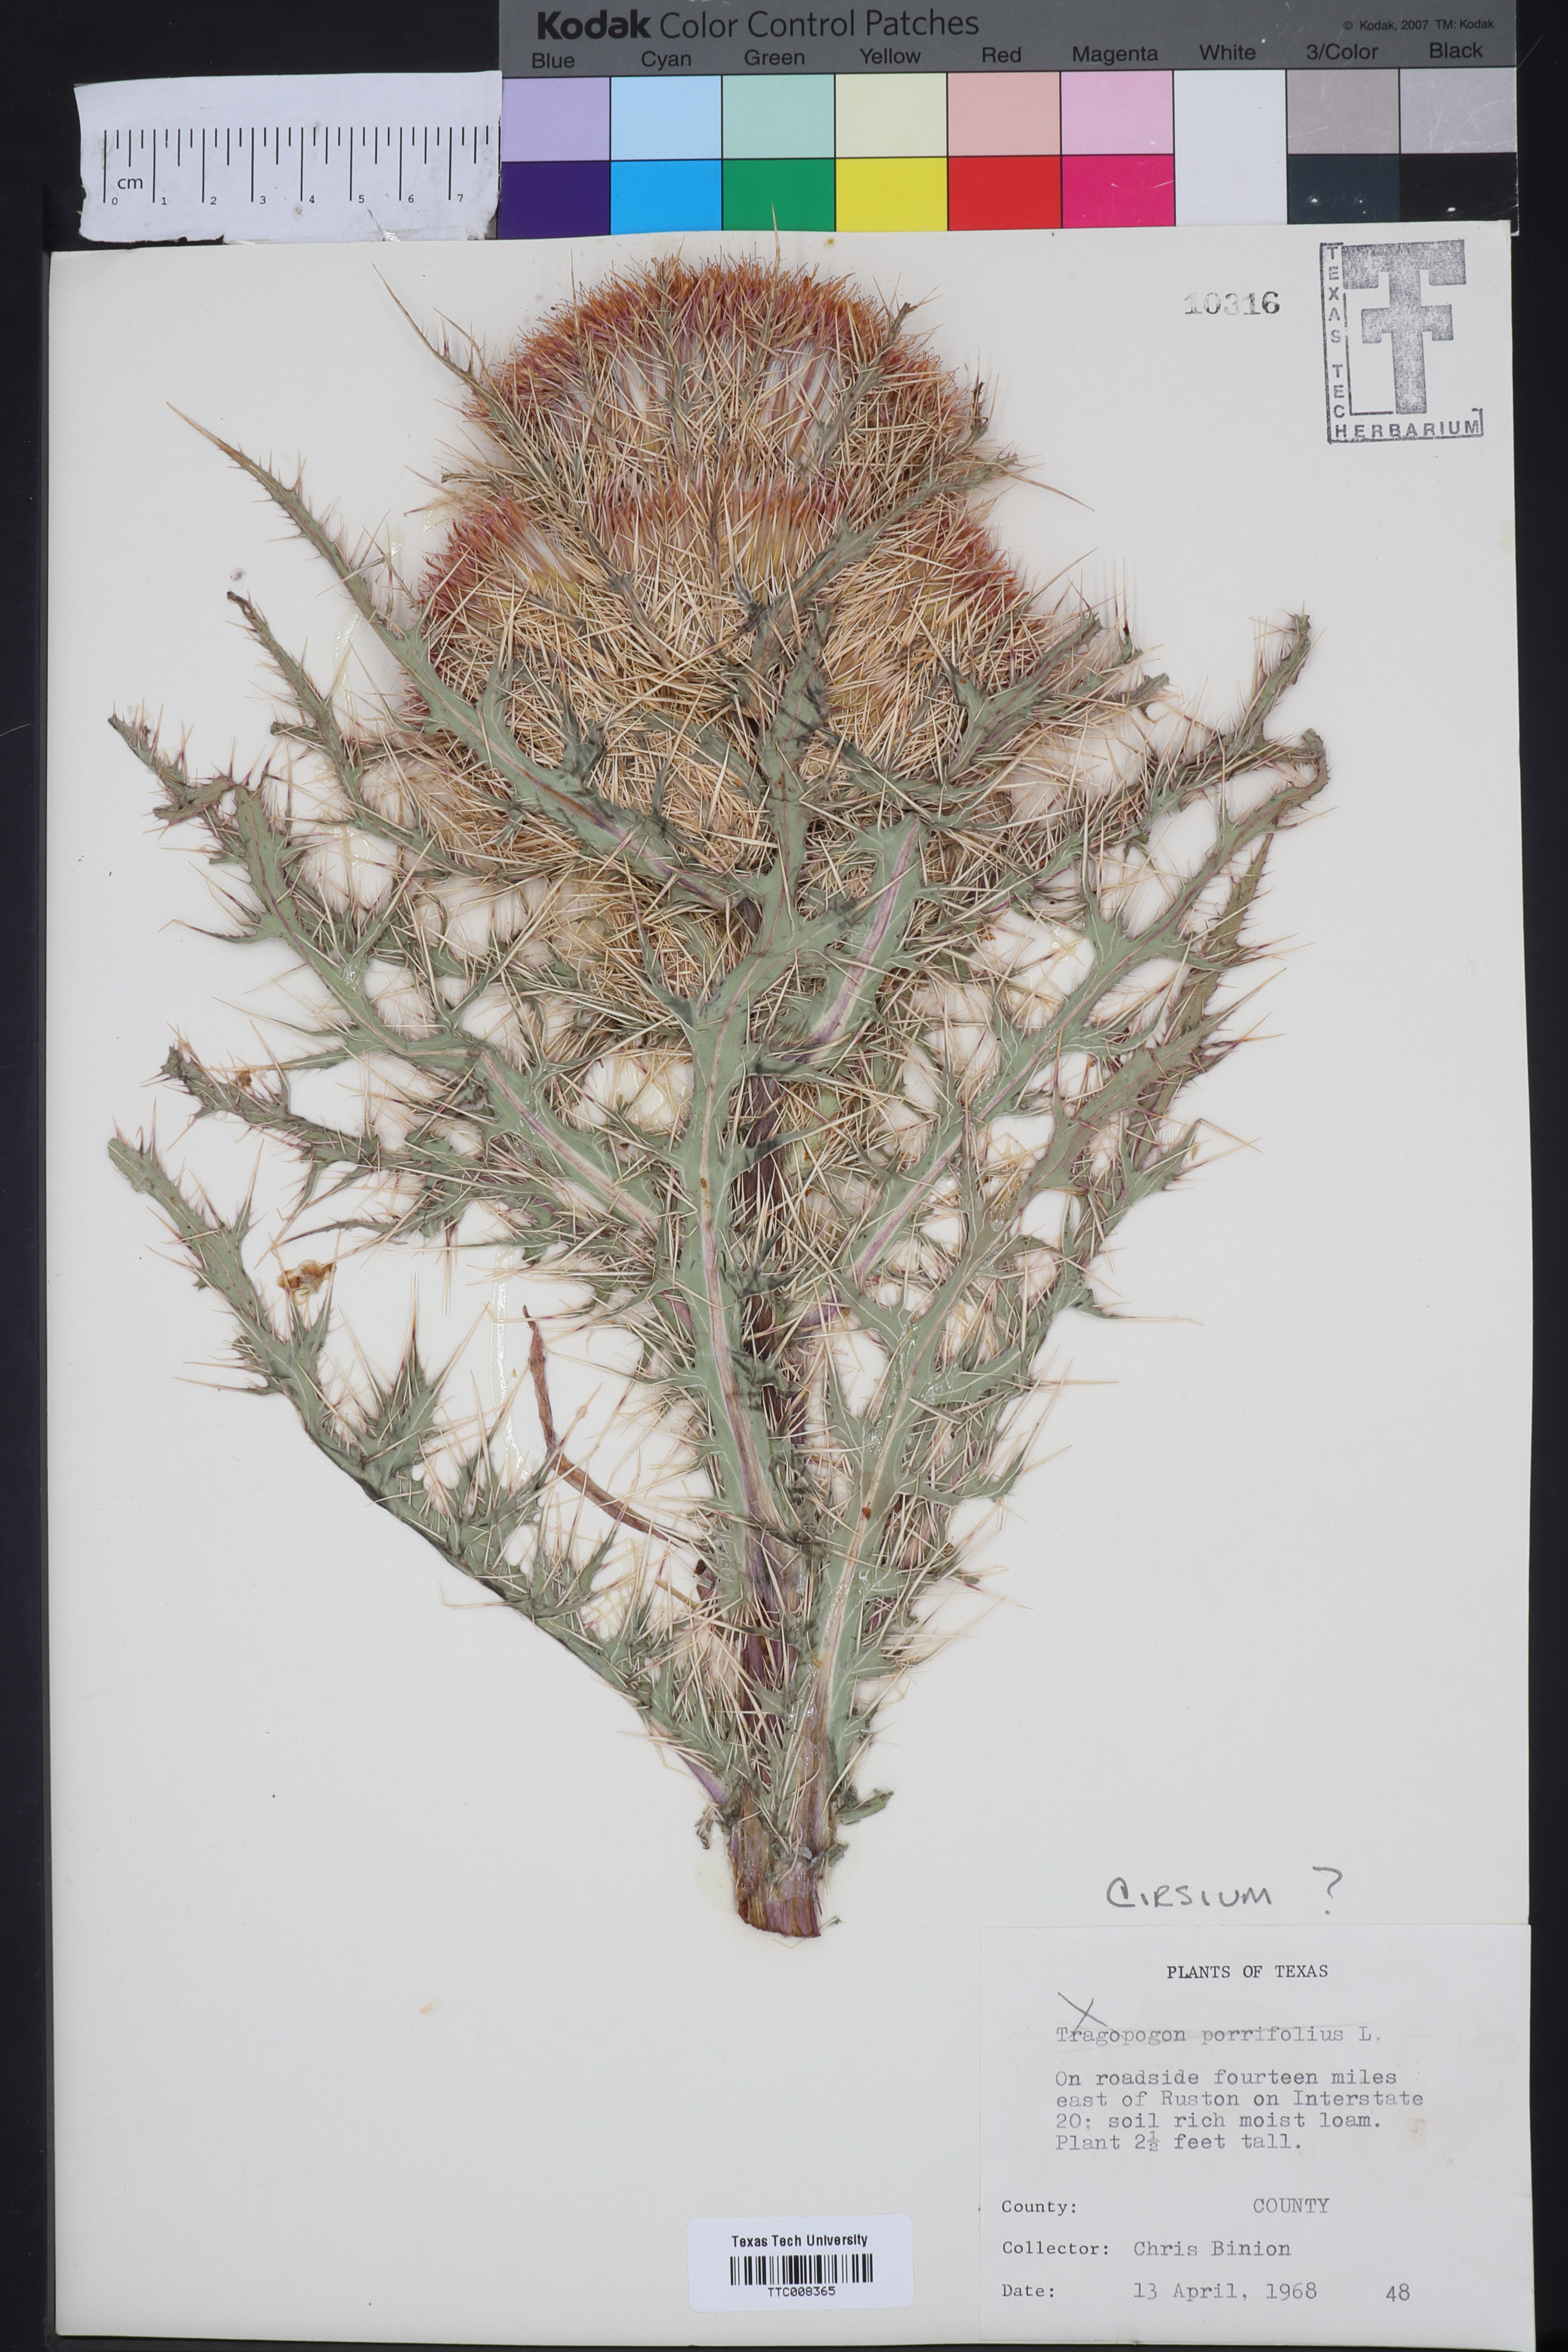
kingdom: Plantae
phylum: Tracheophyta
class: Magnoliopsida
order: Asterales
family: Asteraceae
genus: Cirsium
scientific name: Cirsium
